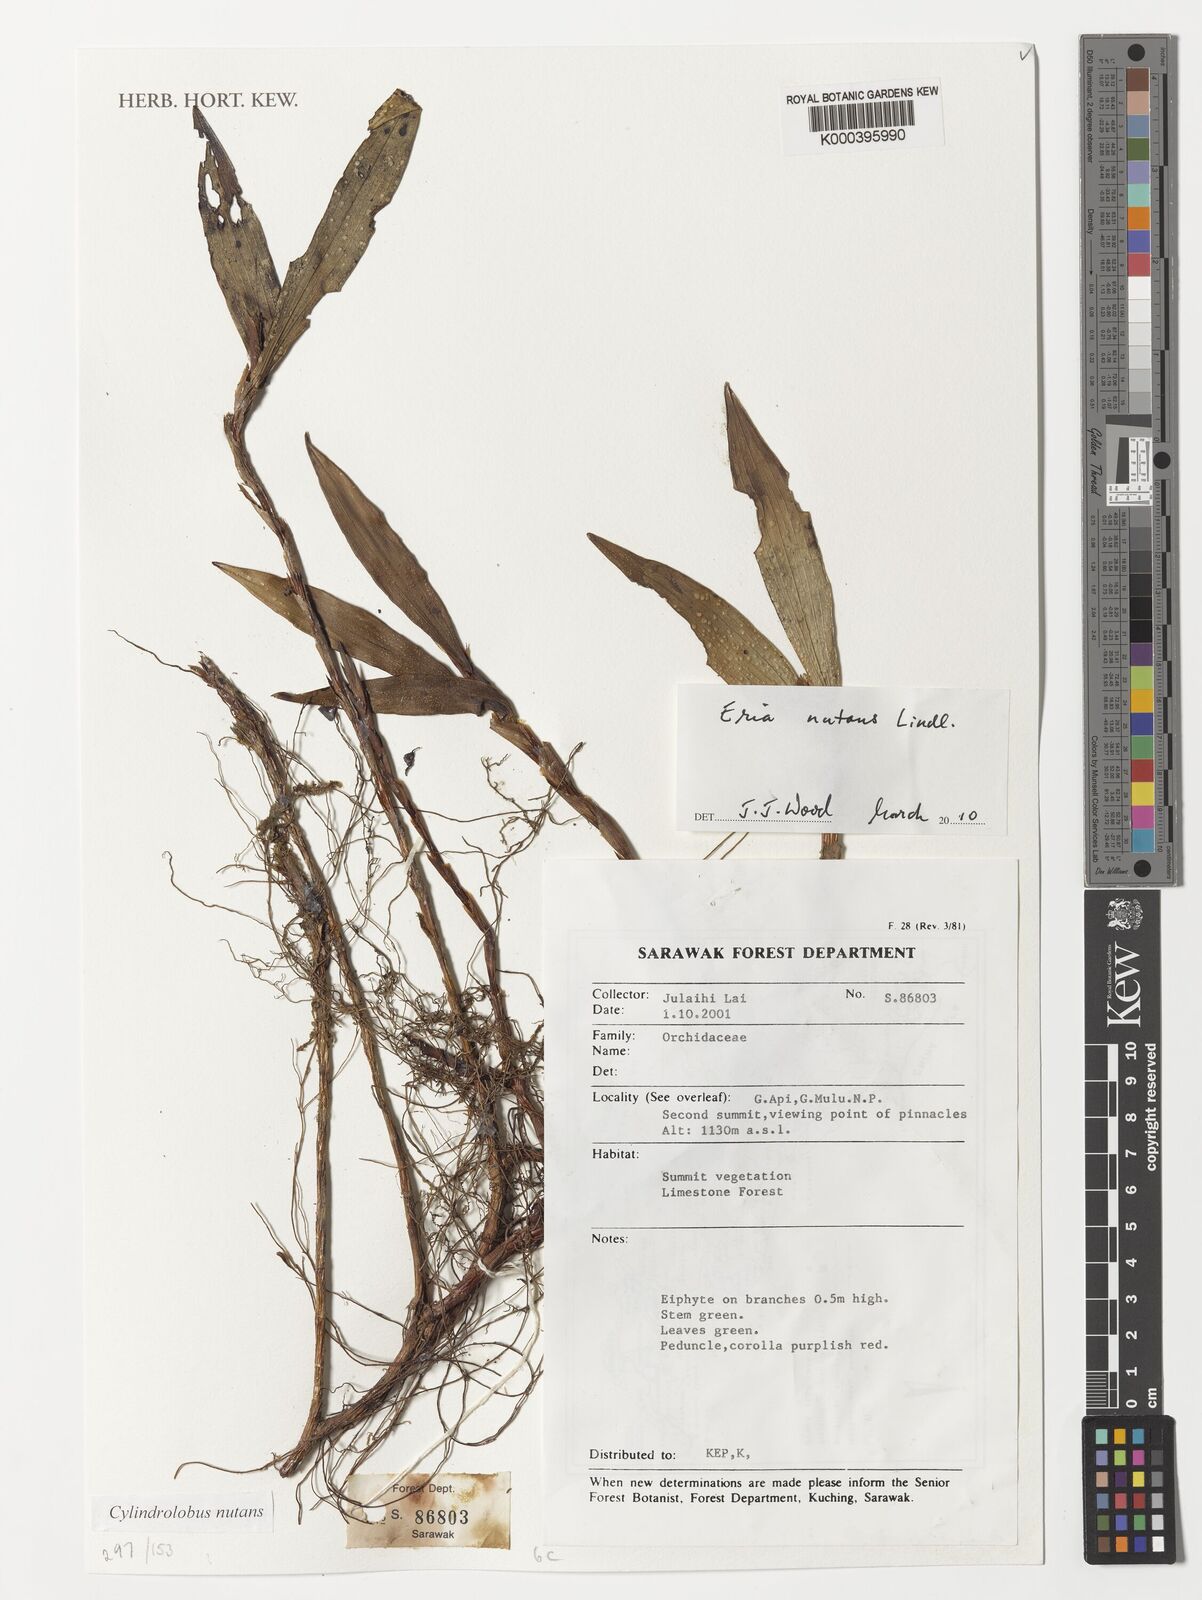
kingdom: Plantae
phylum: Tracheophyta
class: Liliopsida
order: Asparagales
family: Orchidaceae
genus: Cylindrolobus
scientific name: Cylindrolobus nutans
